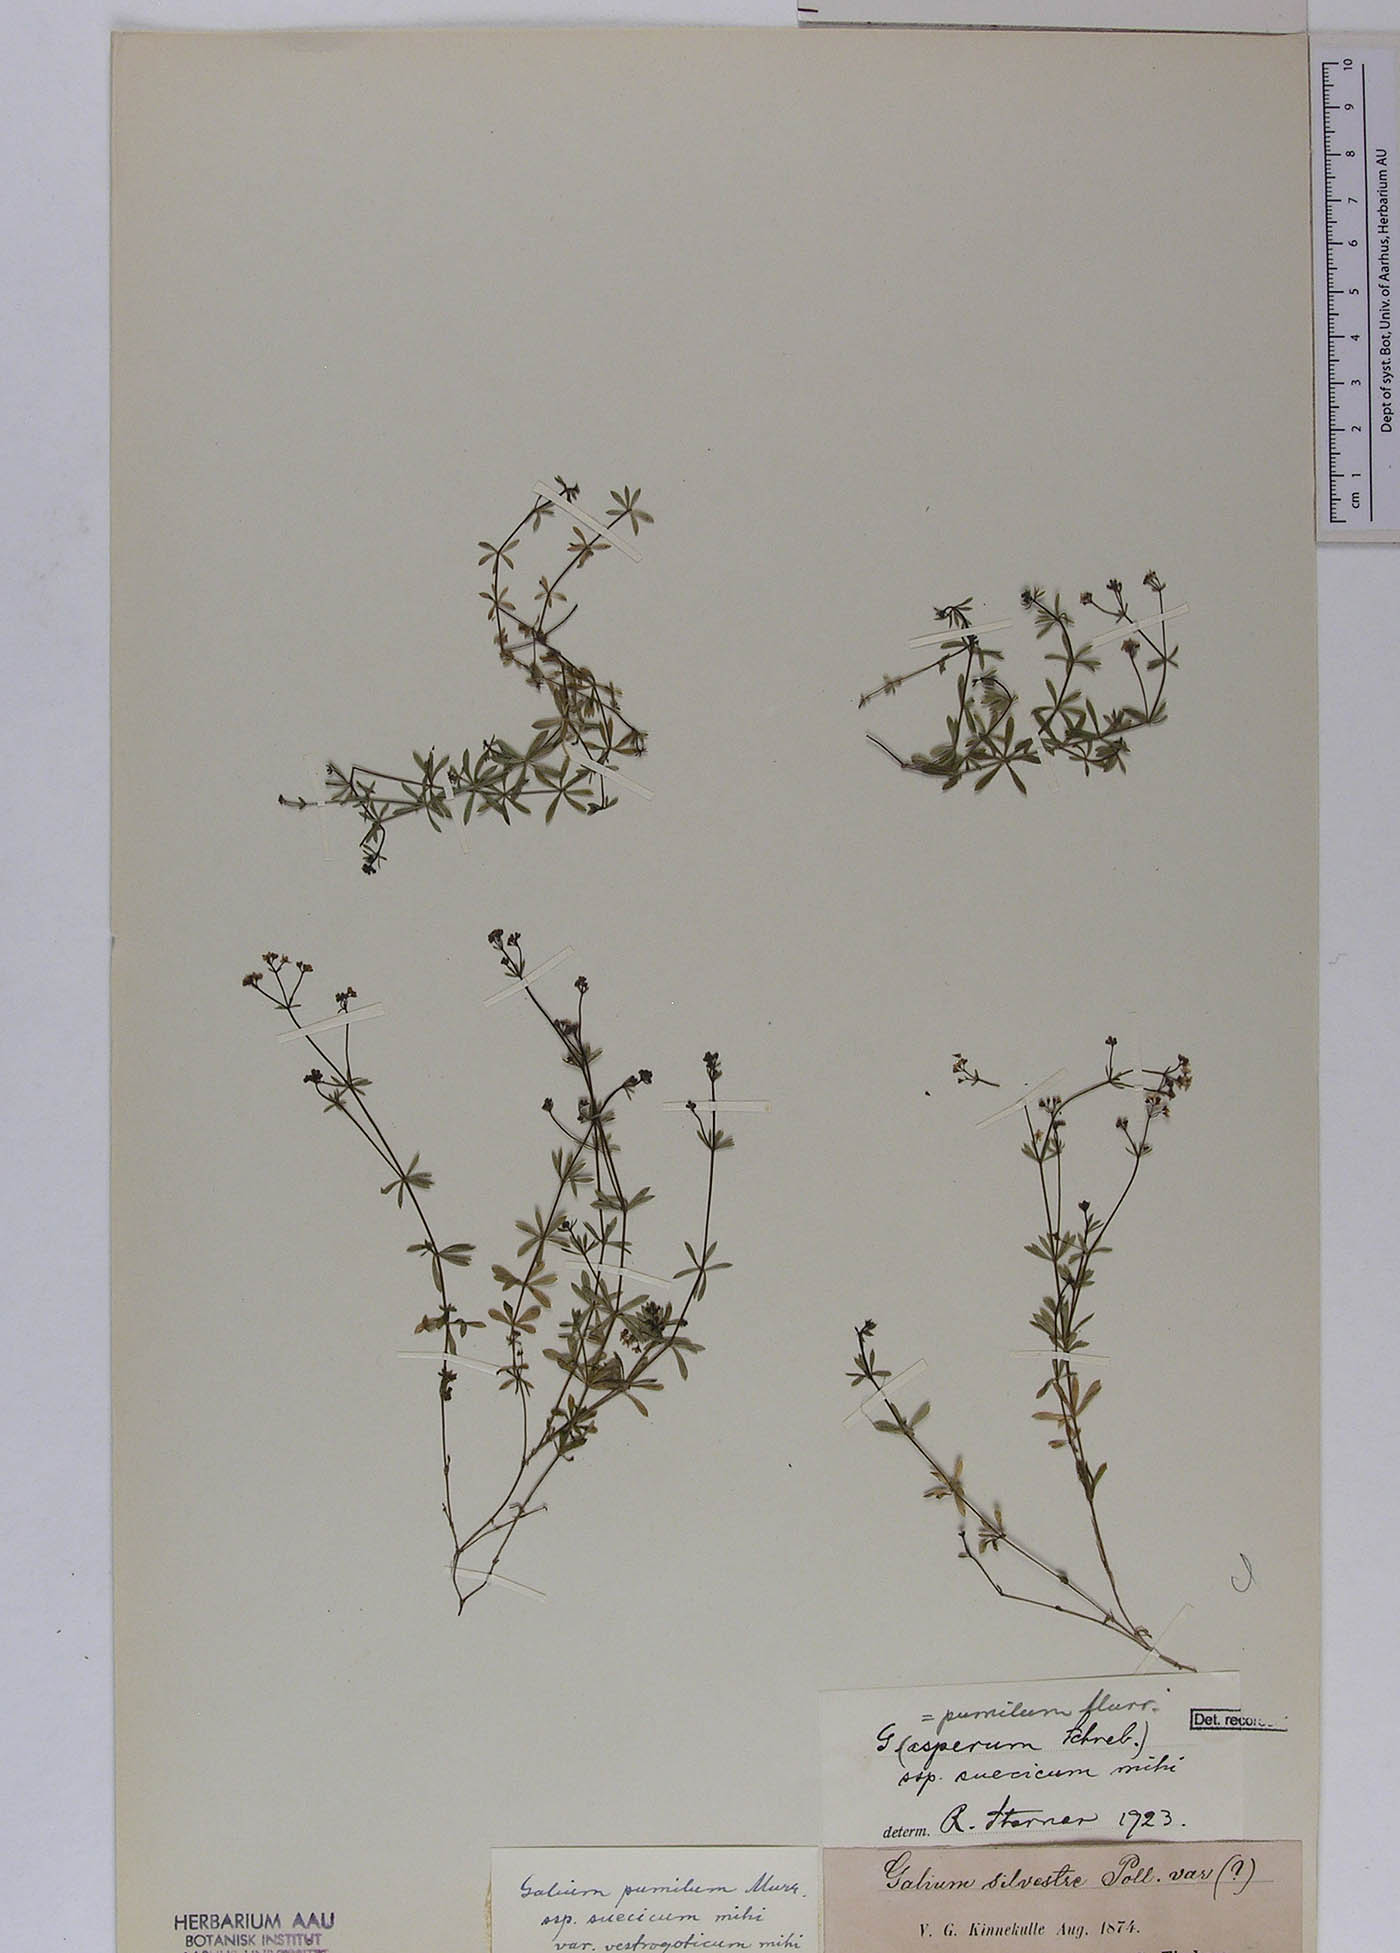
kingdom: Plantae
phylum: Tracheophyta
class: Magnoliopsida
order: Gentianales
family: Rubiaceae
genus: Galium
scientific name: Galium pusillum
